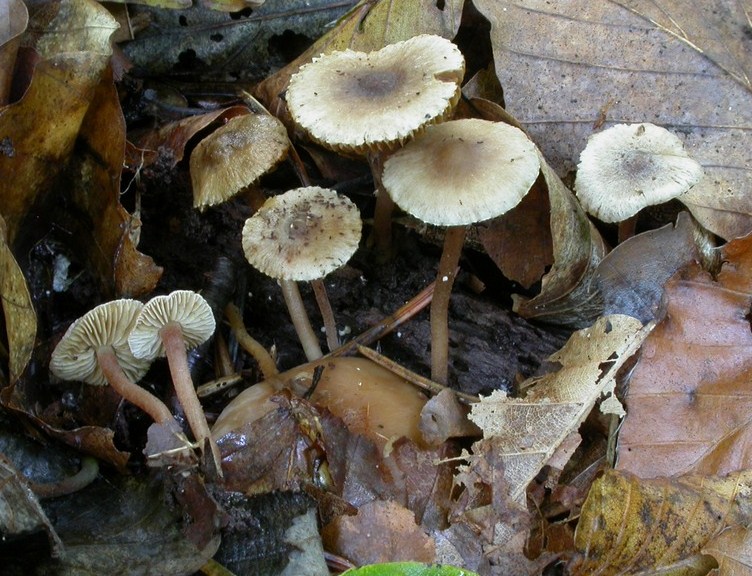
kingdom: Fungi
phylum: Basidiomycota
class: Agaricomycetes
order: Agaricales
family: Inocybaceae
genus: Inocybe
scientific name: Inocybe petiginosa
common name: liden trævlhat
